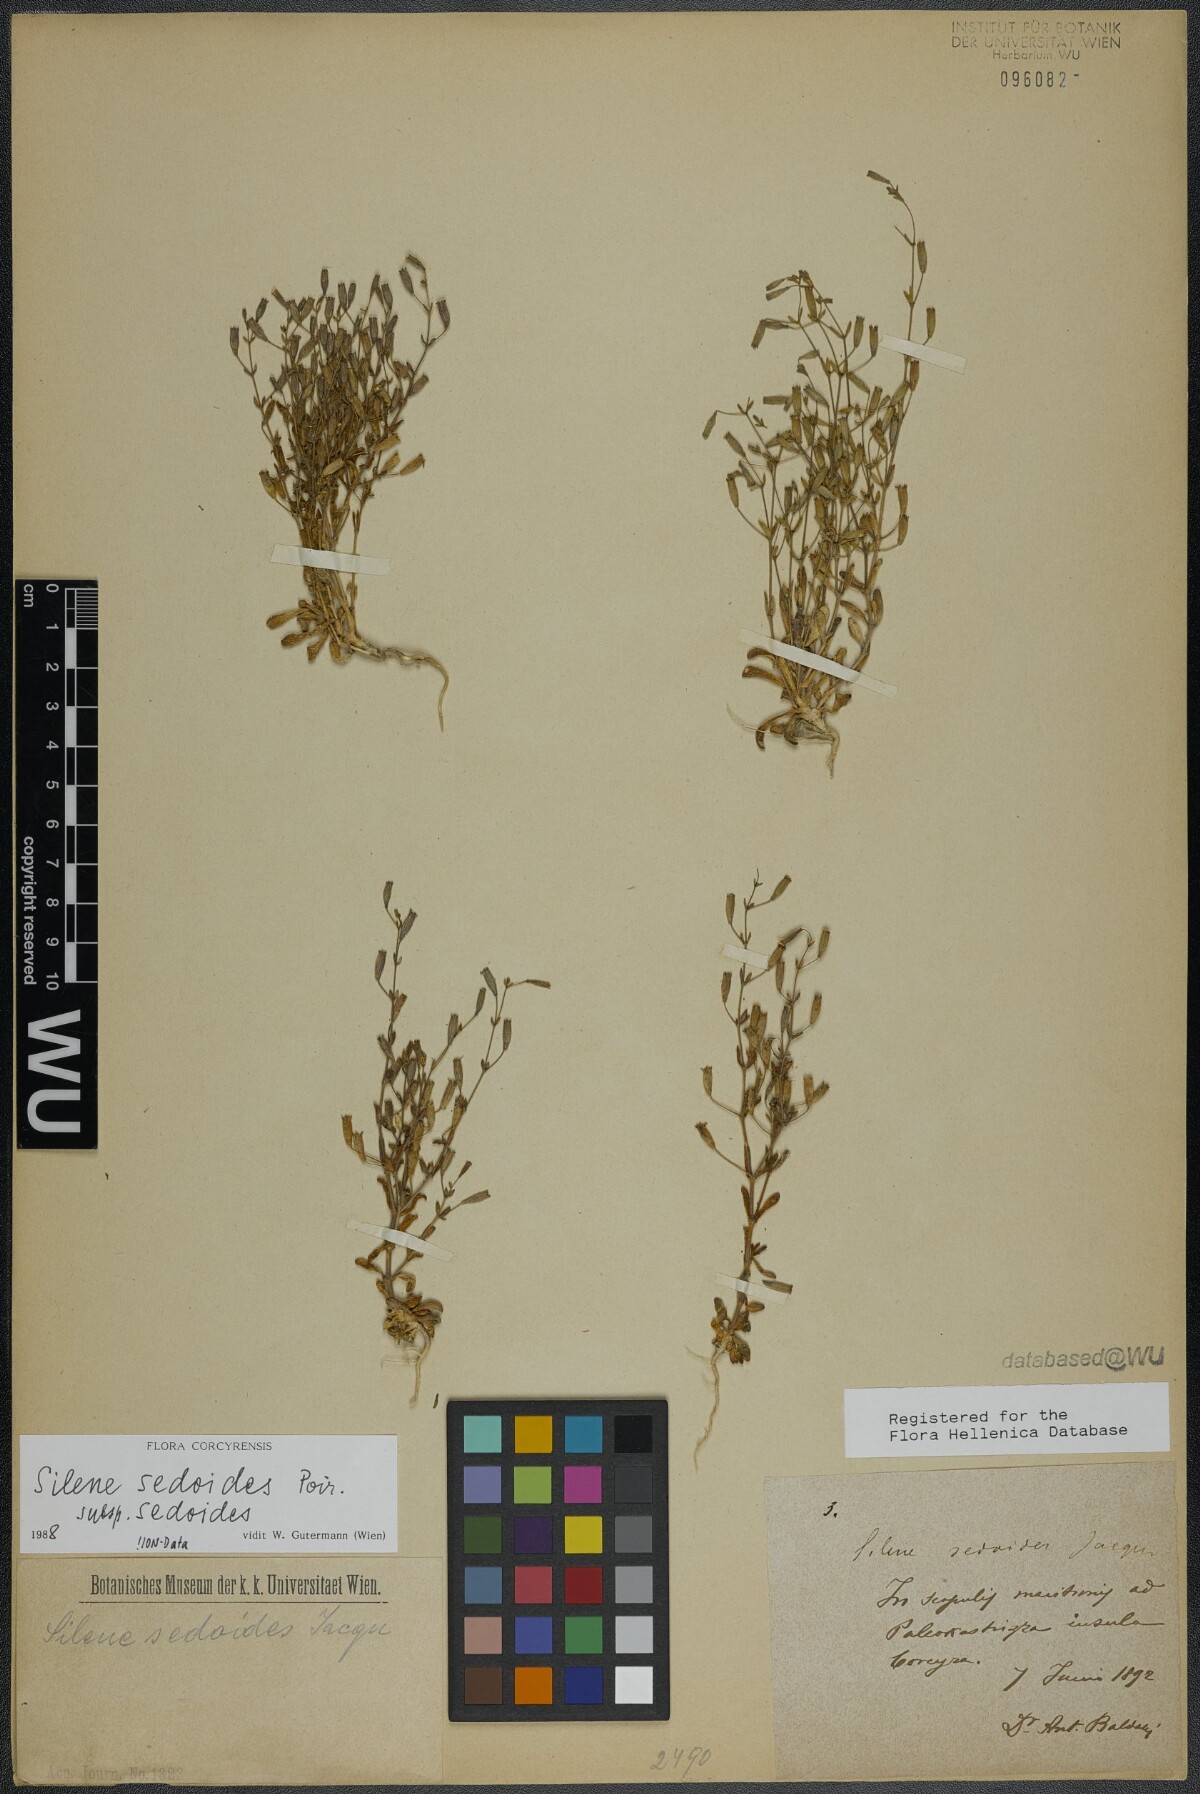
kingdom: Plantae
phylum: Tracheophyta
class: Magnoliopsida
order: Caryophyllales
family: Caryophyllaceae
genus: Silene
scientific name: Silene sedoides
